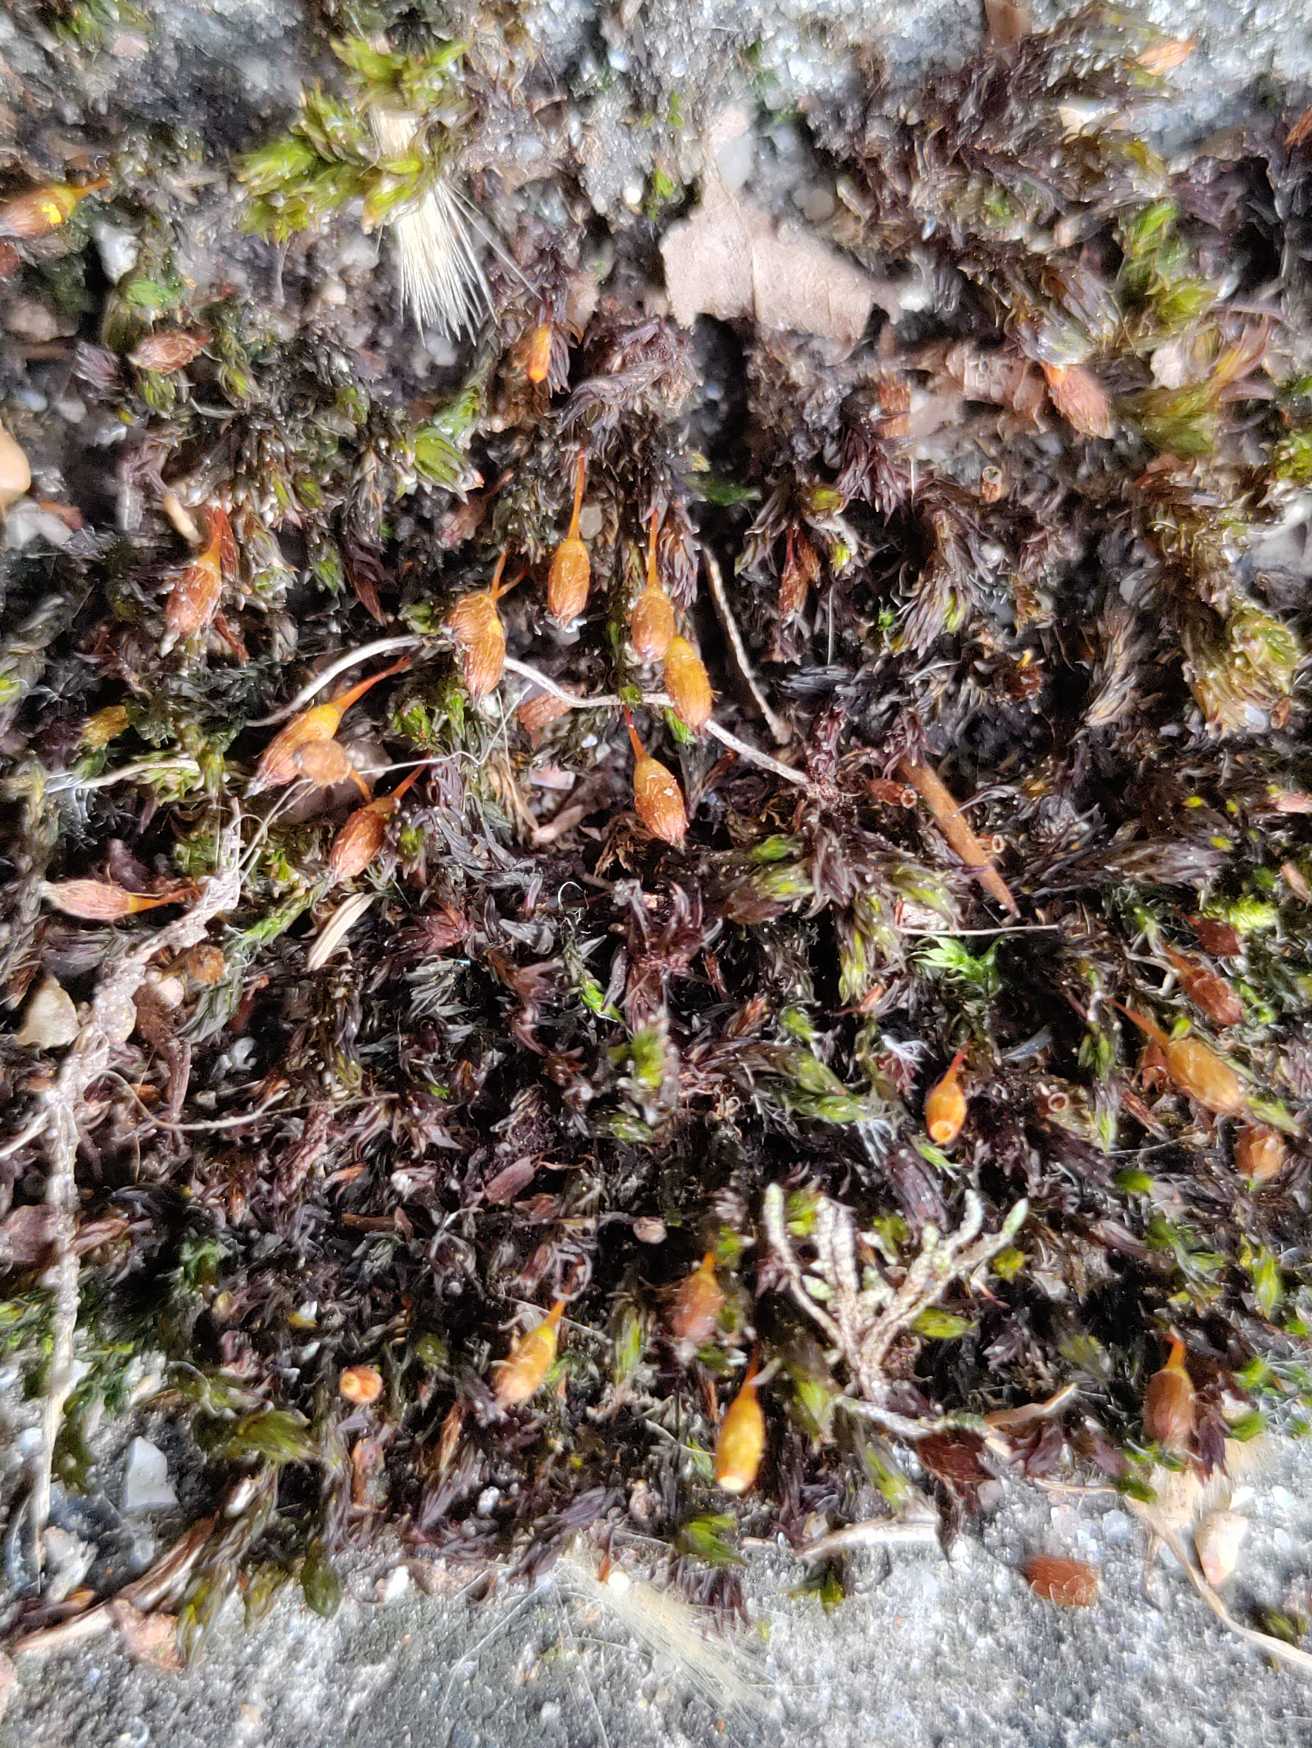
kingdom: Plantae
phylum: Bryophyta
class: Bryopsida
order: Orthotrichales
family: Orthotrichaceae
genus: Orthotrichum
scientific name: Orthotrichum anomalum
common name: Mørk furehætte
